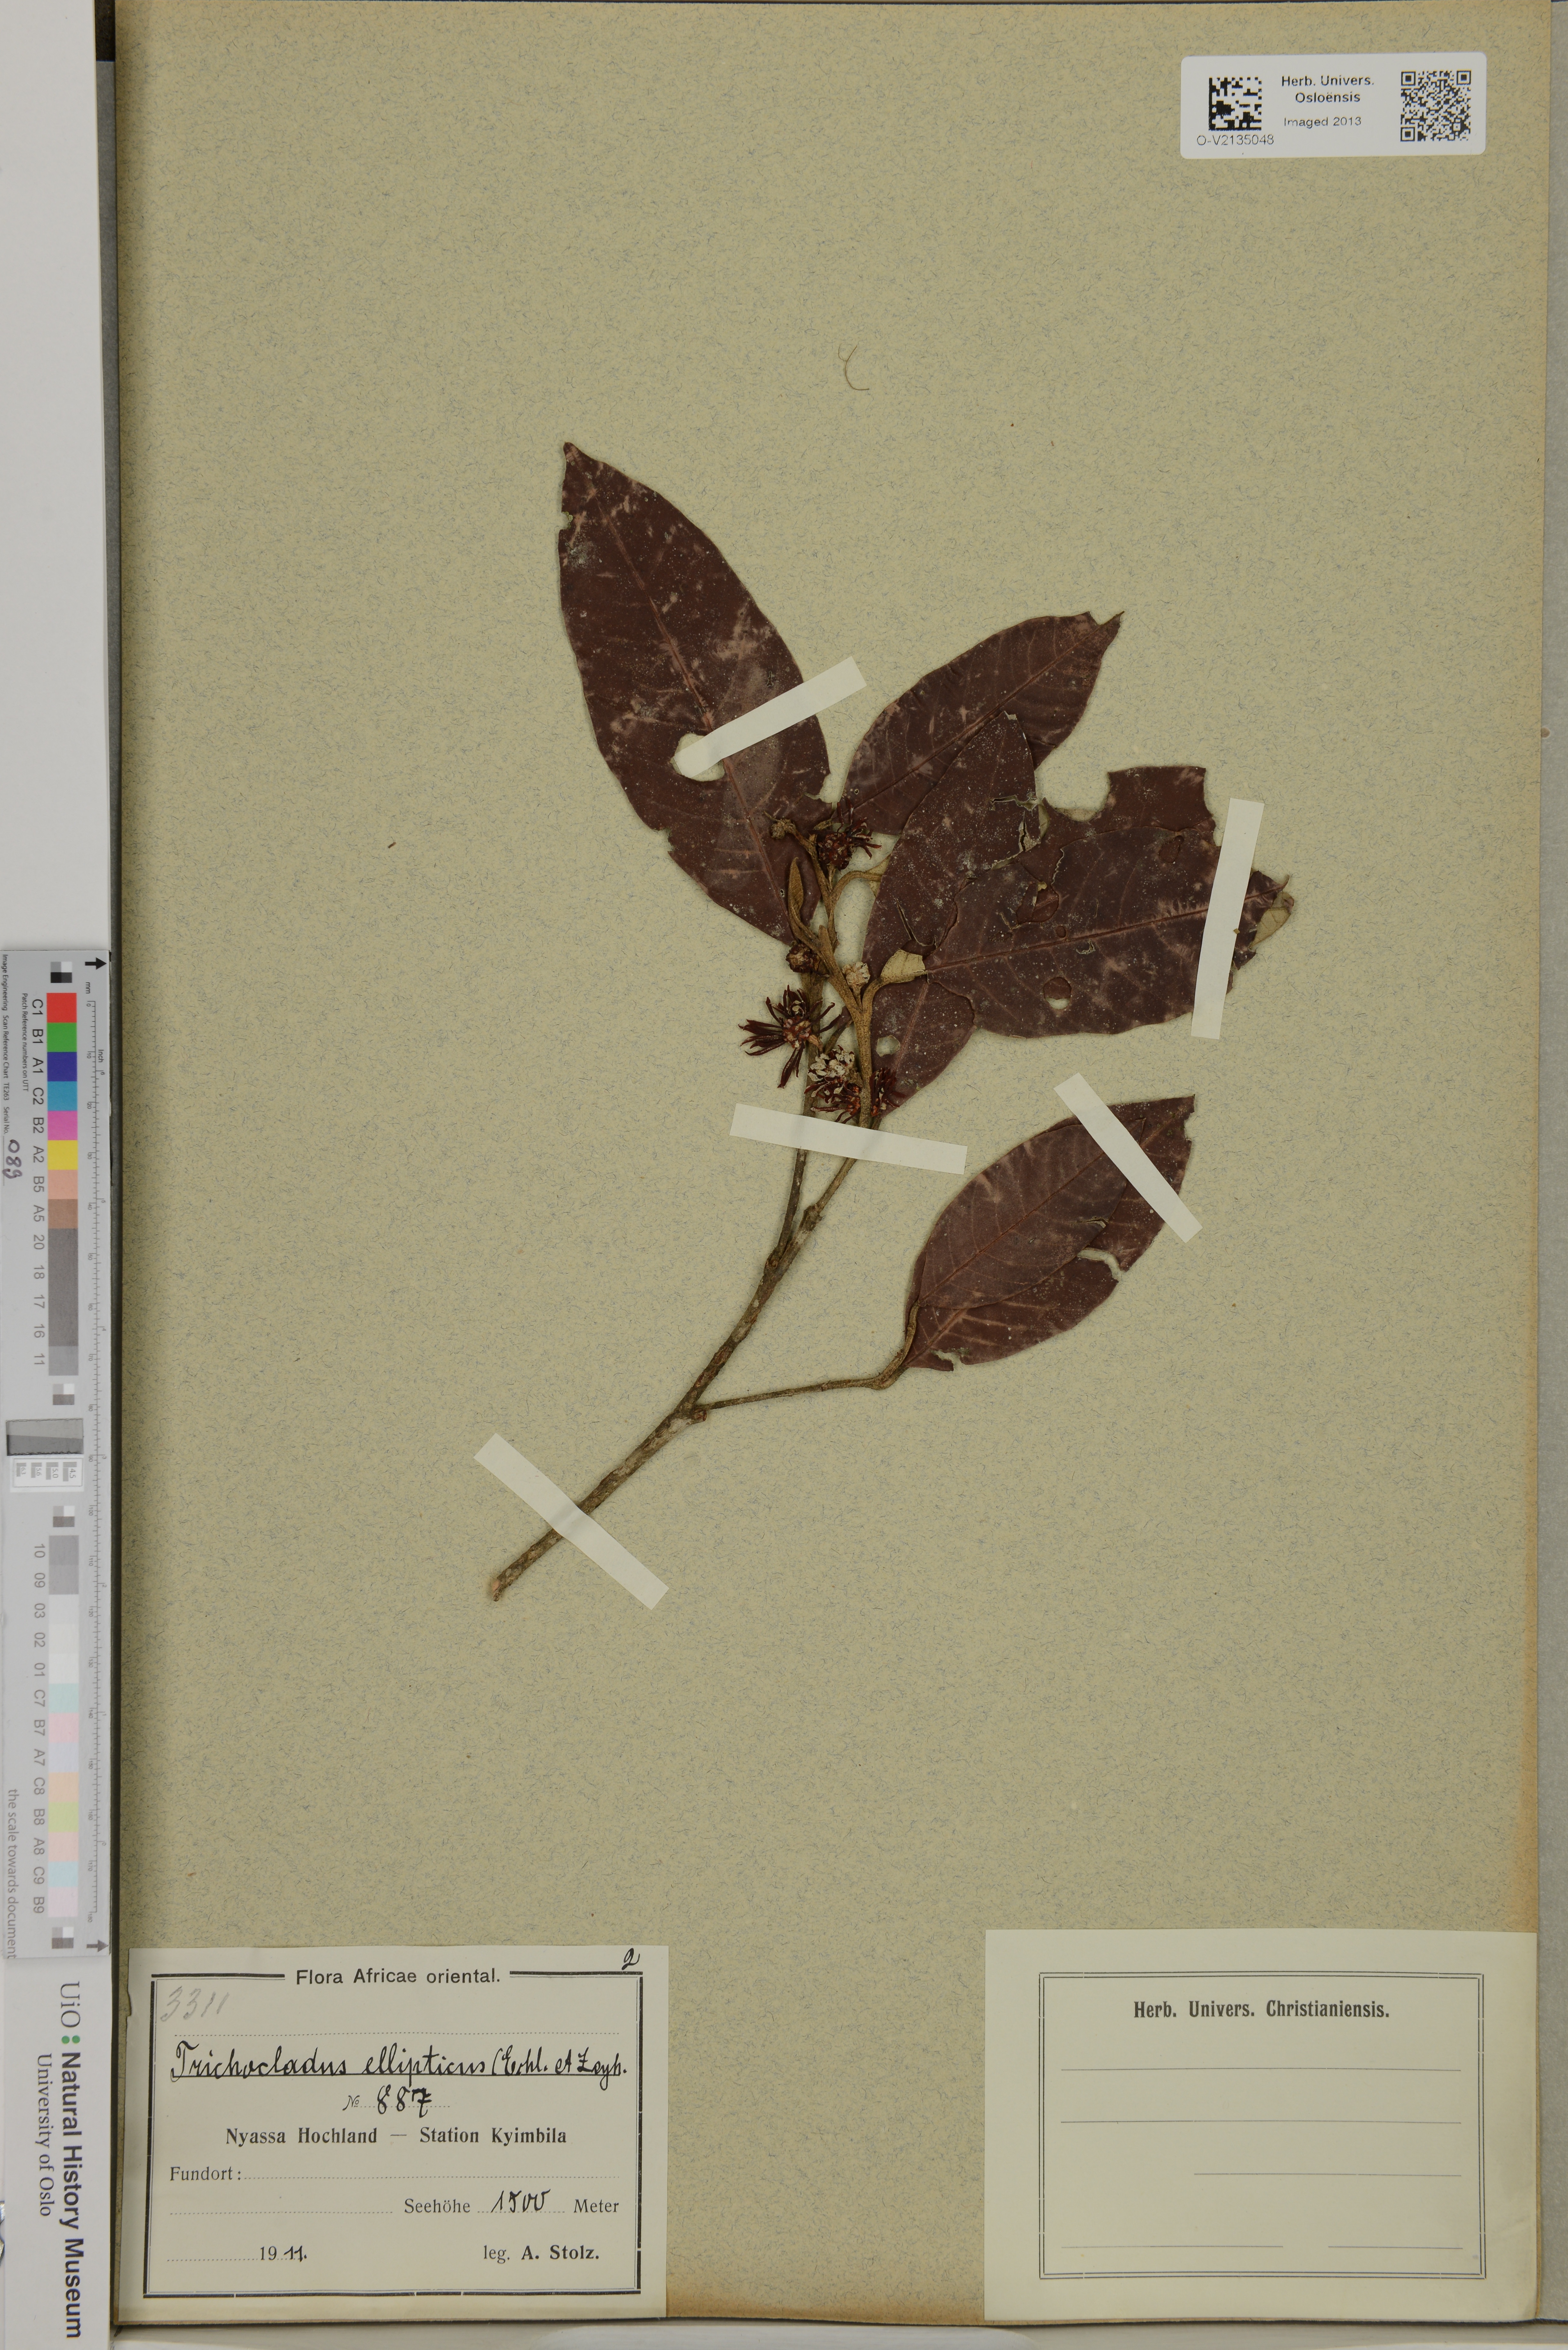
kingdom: Plantae
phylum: Tracheophyta
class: Magnoliopsida
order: Saxifragales
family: Hamamelidaceae
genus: Trichocladus
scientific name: Trichocladus ellipticus
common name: White witch-hazel
